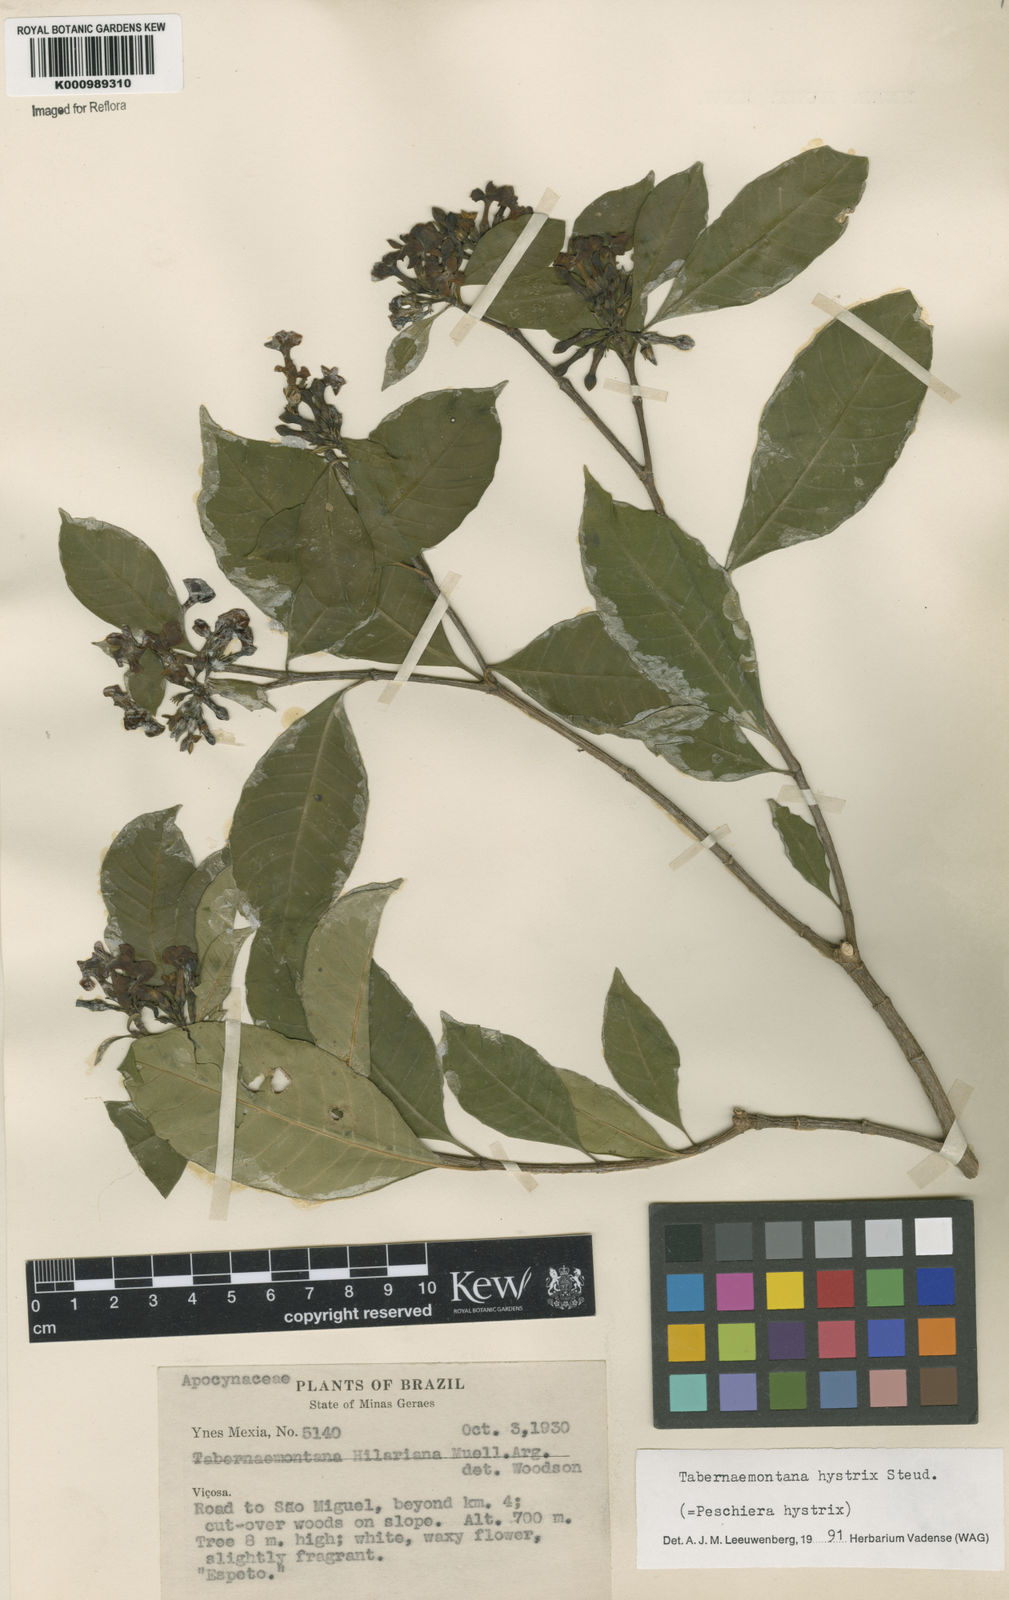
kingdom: Plantae
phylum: Tracheophyta
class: Magnoliopsida
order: Gentianales
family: Apocynaceae
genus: Tabernaemontana
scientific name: Tabernaemontana hystrix
